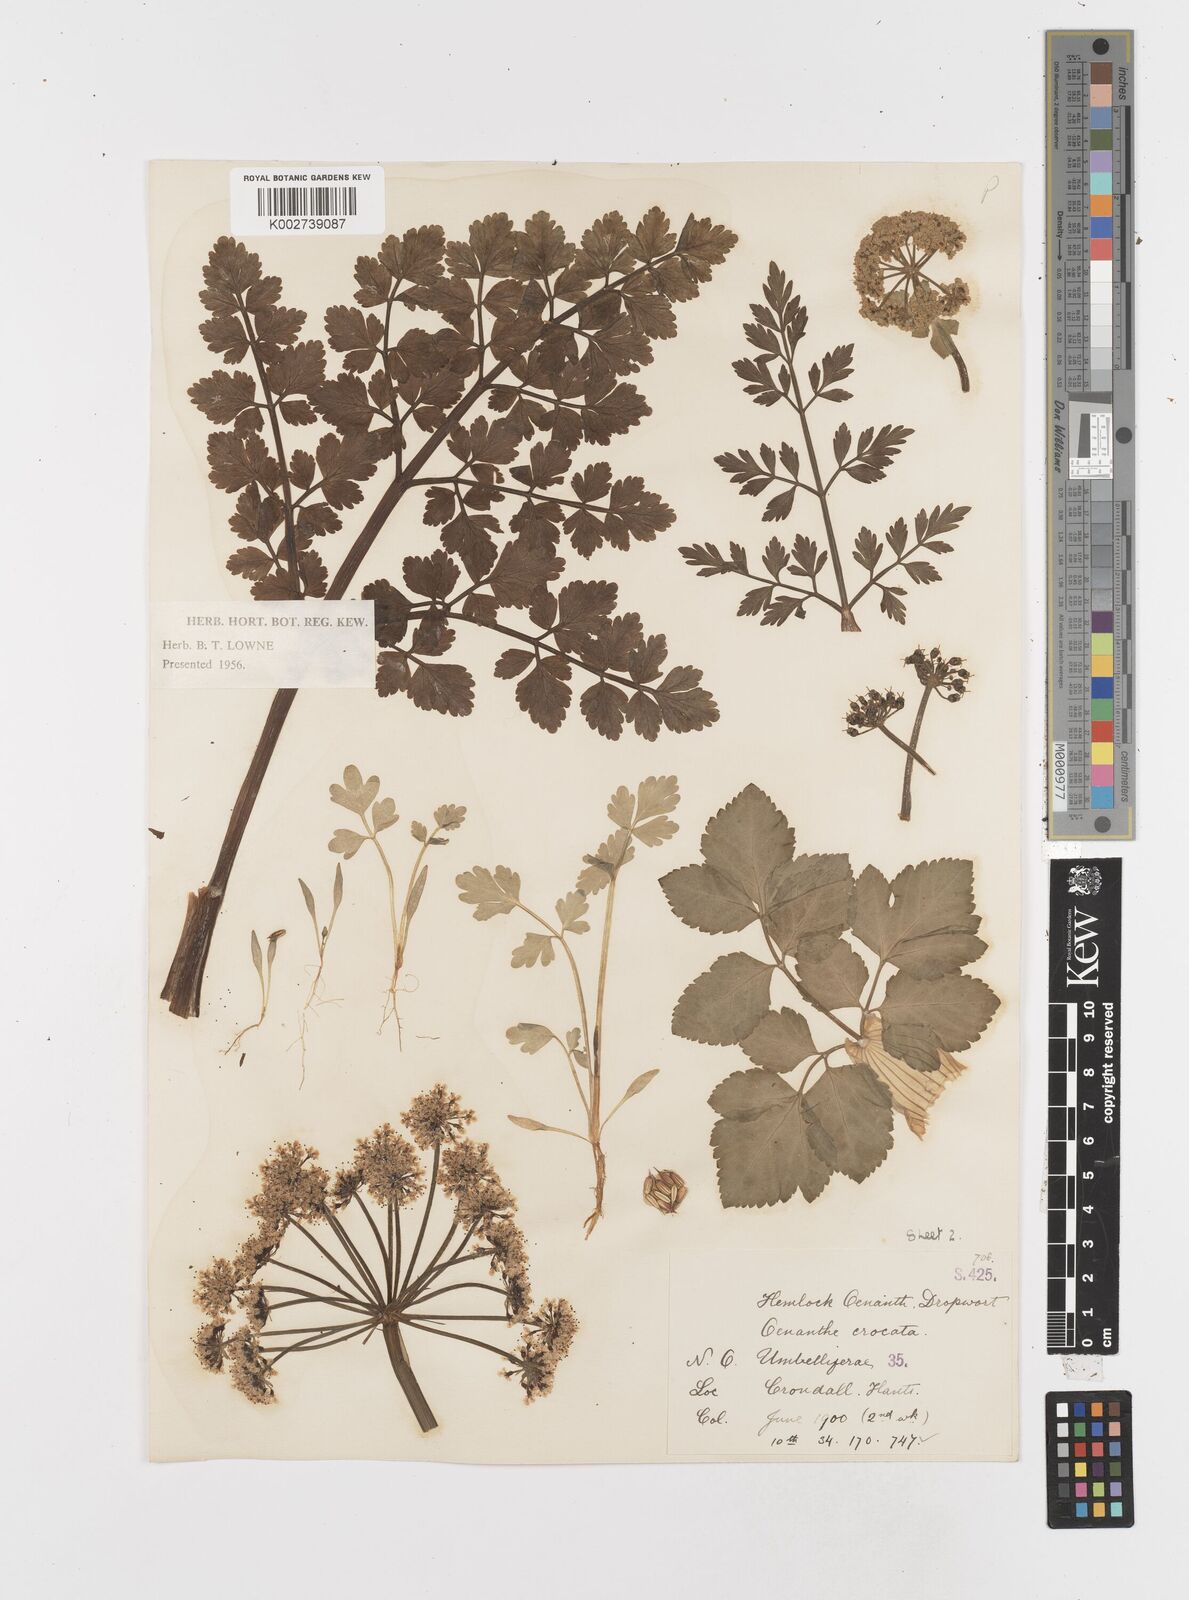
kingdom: Plantae
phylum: Tracheophyta
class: Magnoliopsida
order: Apiales
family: Apiaceae
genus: Oenanthe
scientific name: Oenanthe crocata
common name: Hemlock water-dropwort
